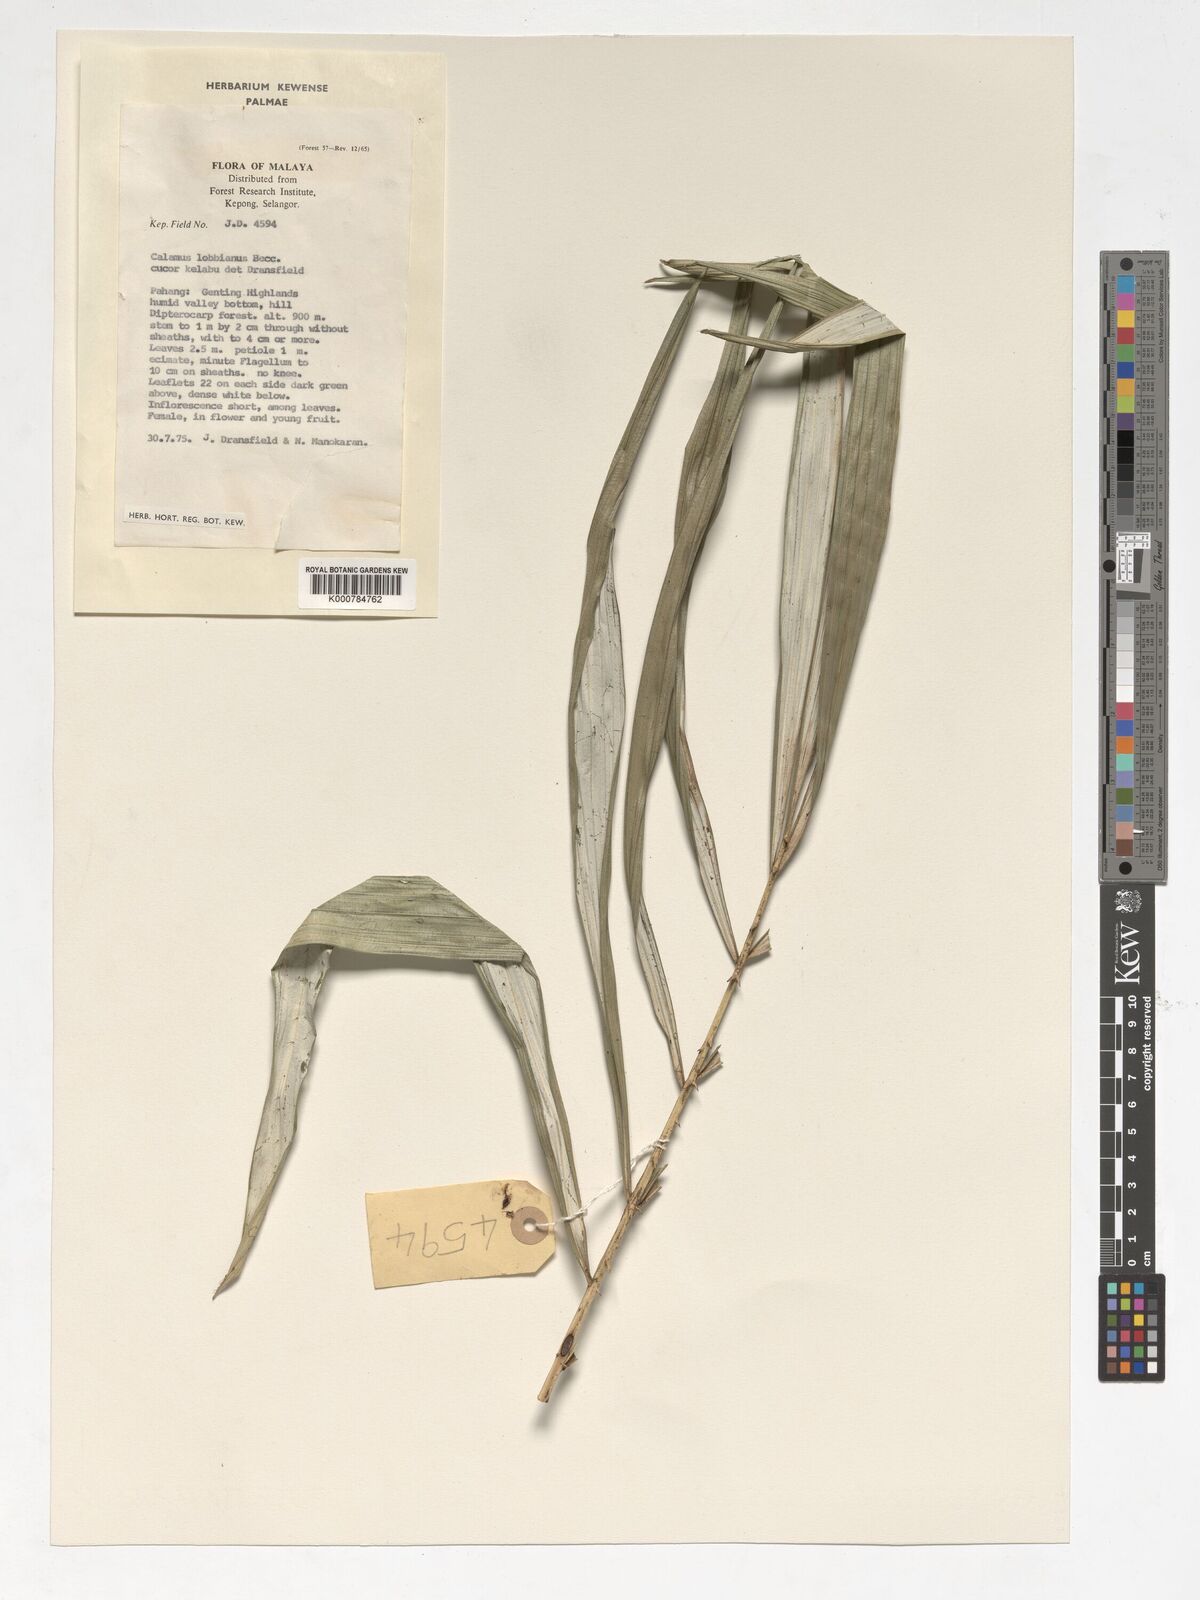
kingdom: Plantae
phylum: Tracheophyta
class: Liliopsida
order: Arecales
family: Arecaceae
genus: Calamus
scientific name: Calamus lobbianus
